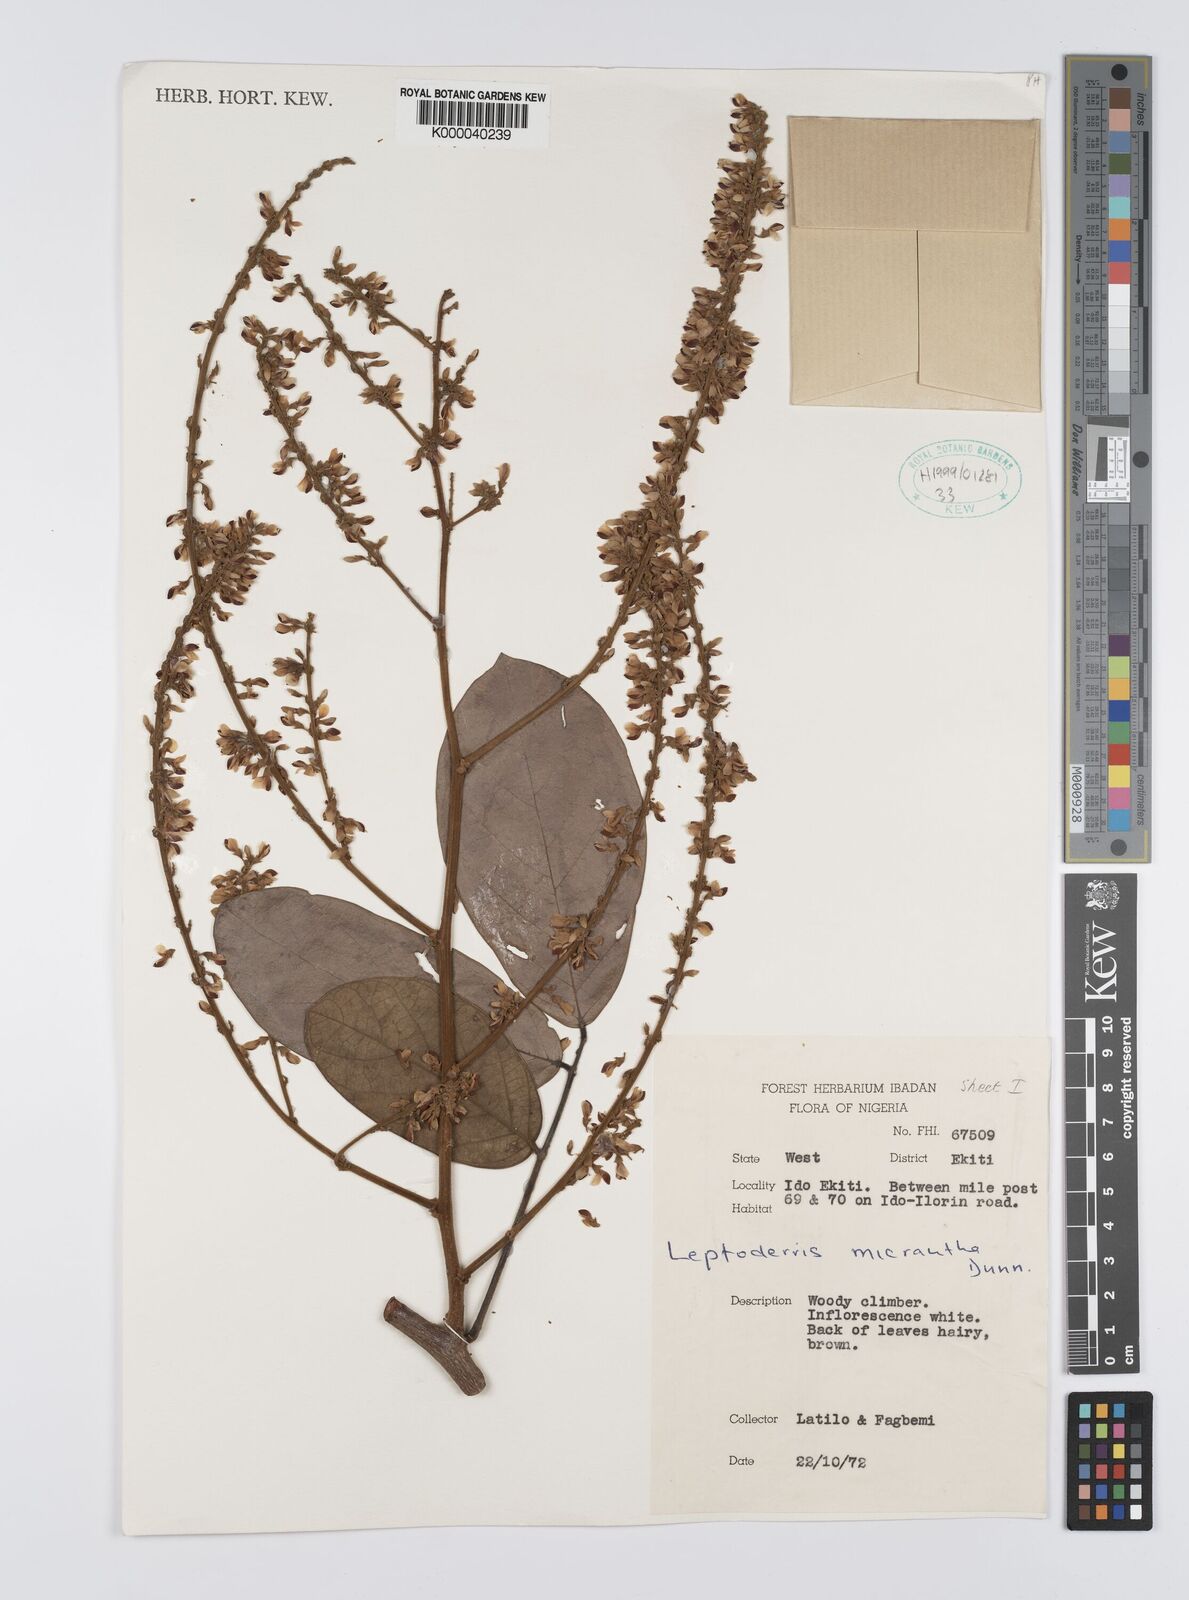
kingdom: Plantae
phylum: Tracheophyta
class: Magnoliopsida
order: Fabales
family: Fabaceae
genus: Leptoderris
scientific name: Leptoderris micrantha
